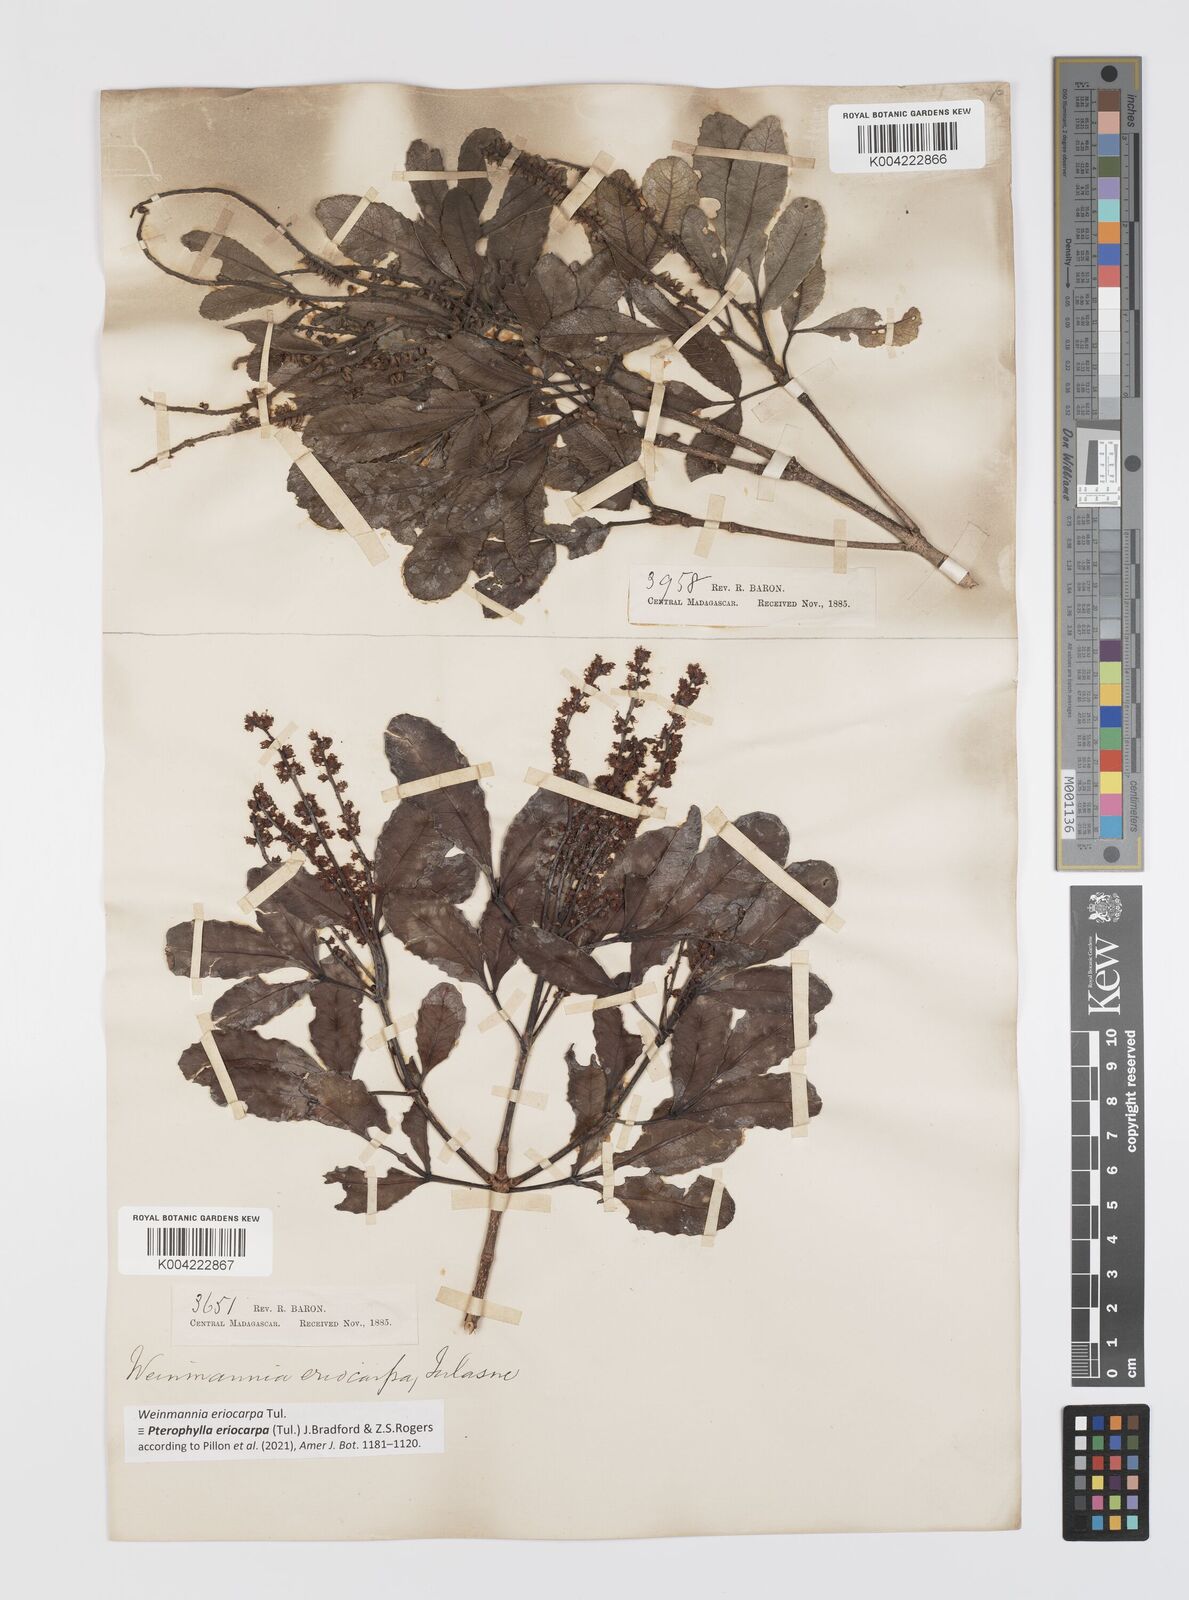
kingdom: Plantae
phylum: Tracheophyta
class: Magnoliopsida
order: Oxalidales
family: Cunoniaceae
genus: Pterophylla
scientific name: Pterophylla eriocarpa
